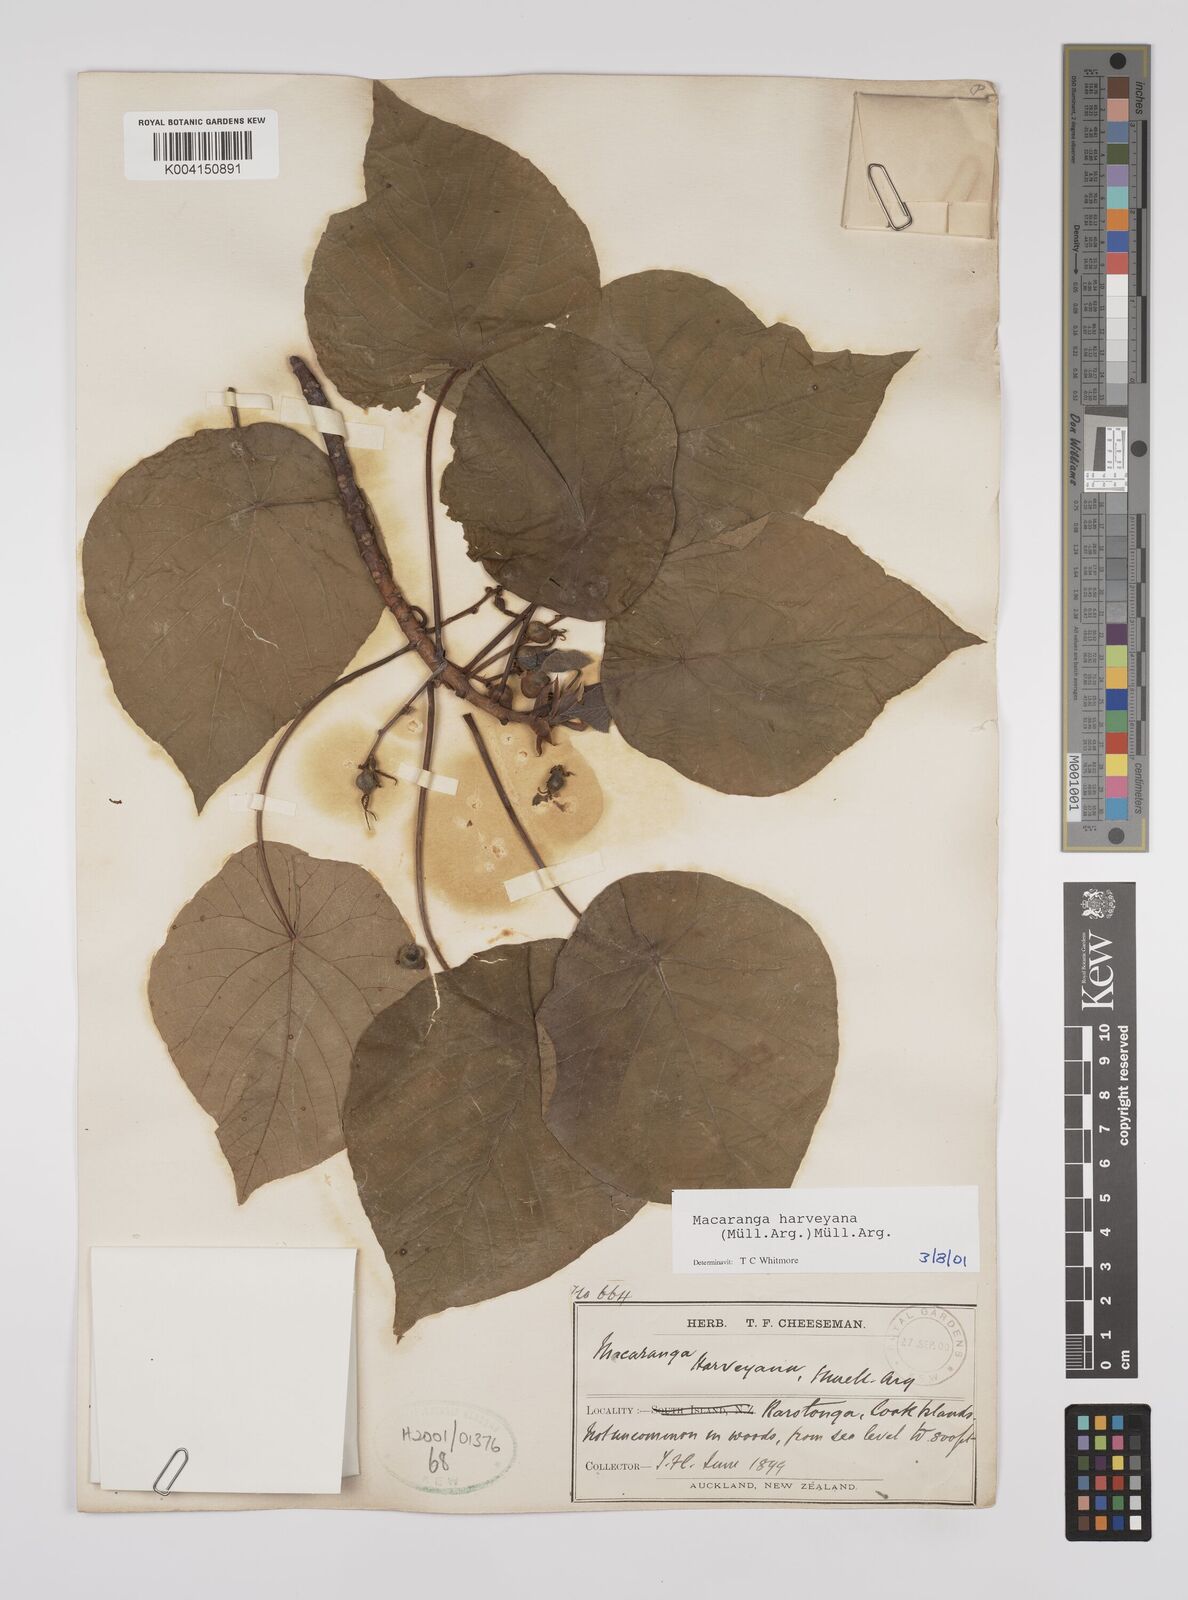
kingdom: Plantae
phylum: Tracheophyta
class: Magnoliopsida
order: Malpighiales
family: Euphorbiaceae
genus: Macaranga
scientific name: Macaranga harveyana
